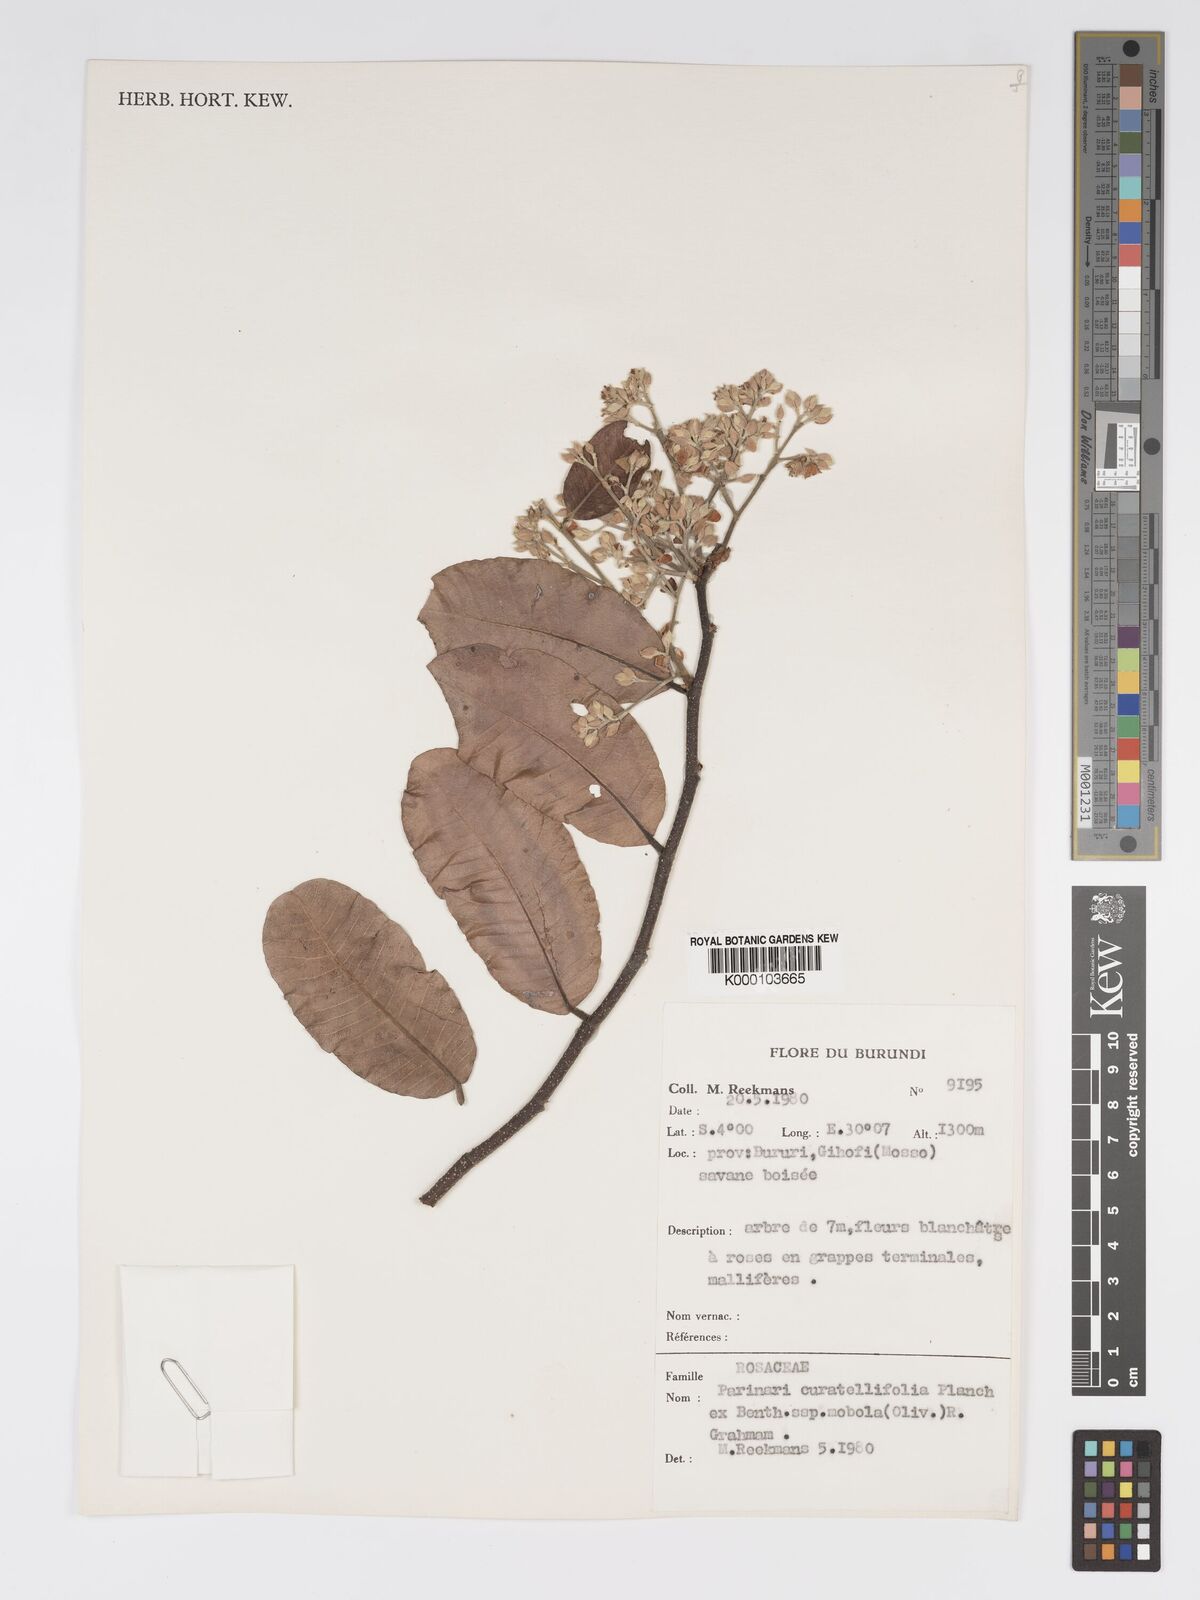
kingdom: Plantae
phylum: Tracheophyta
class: Magnoliopsida
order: Malpighiales
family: Chrysobalanaceae
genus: Parinari
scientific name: Parinari curatellifolia
